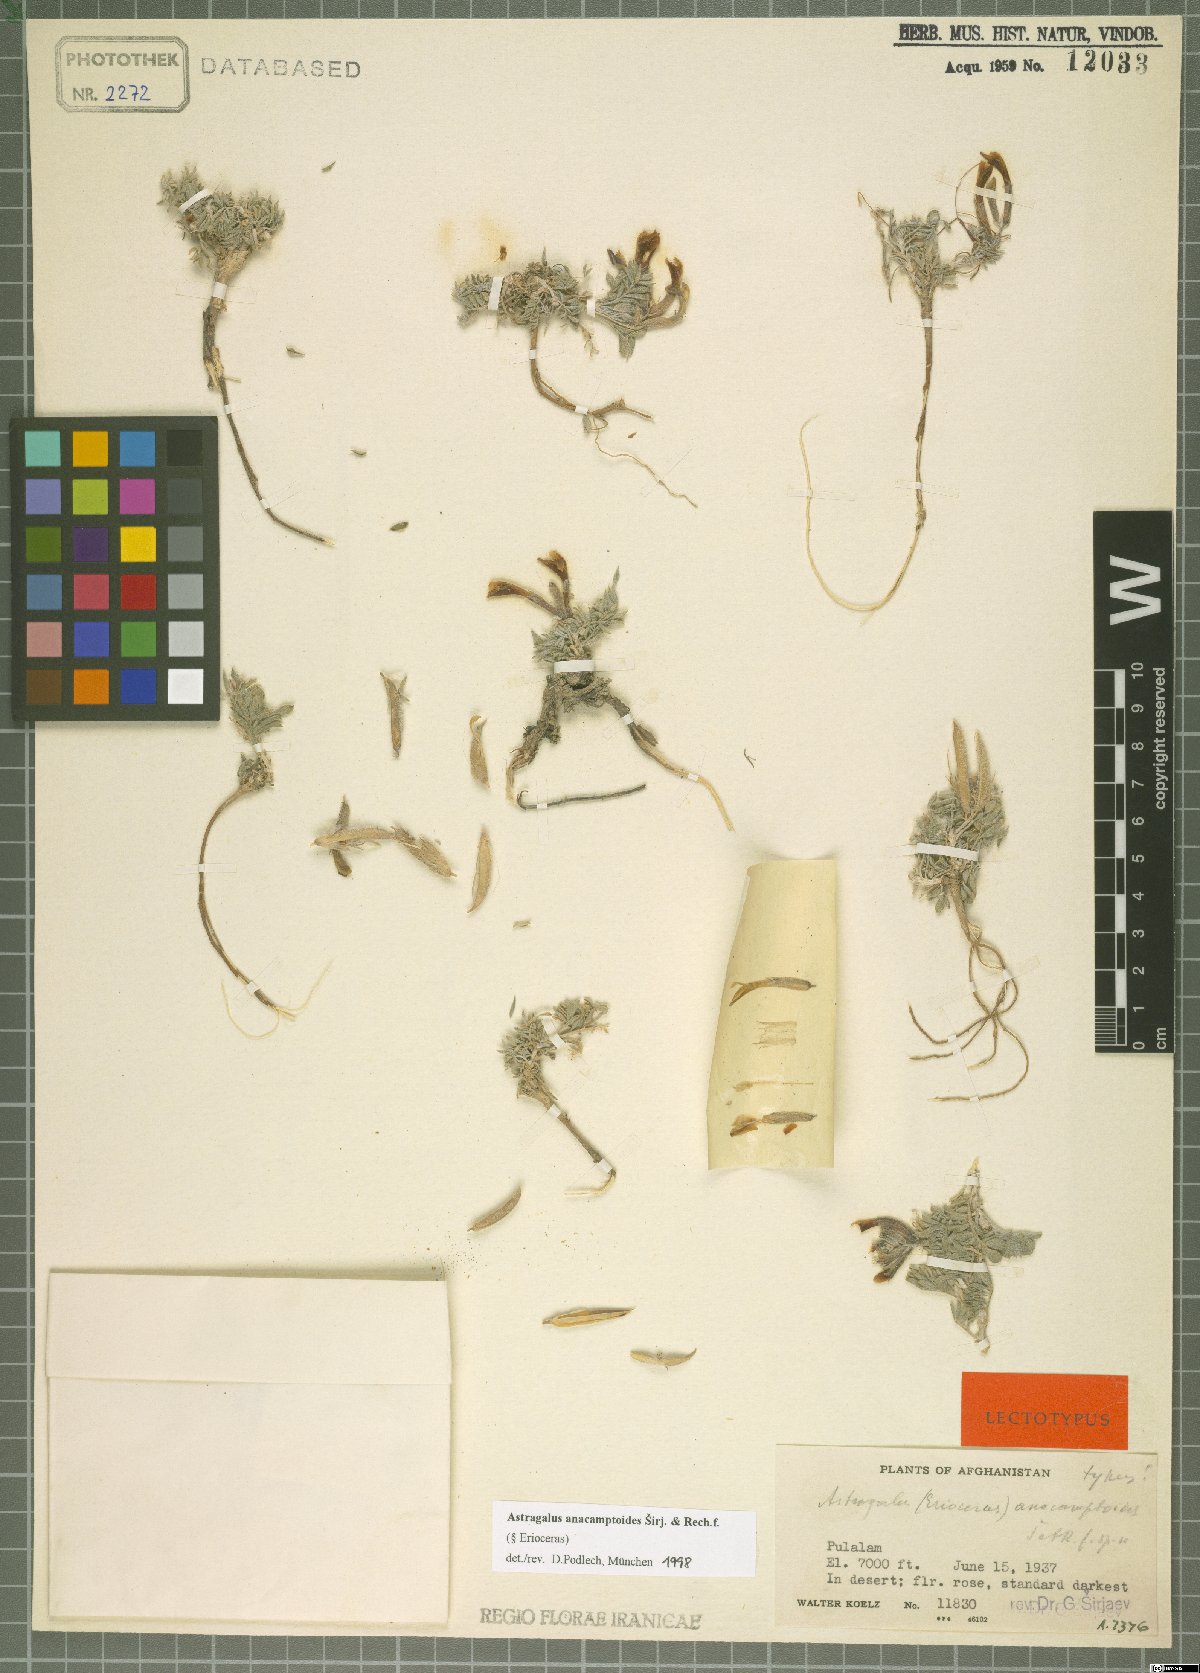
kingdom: Plantae
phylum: Tracheophyta
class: Magnoliopsida
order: Fabales
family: Fabaceae
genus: Astragalus
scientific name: Astragalus anacamptoides
